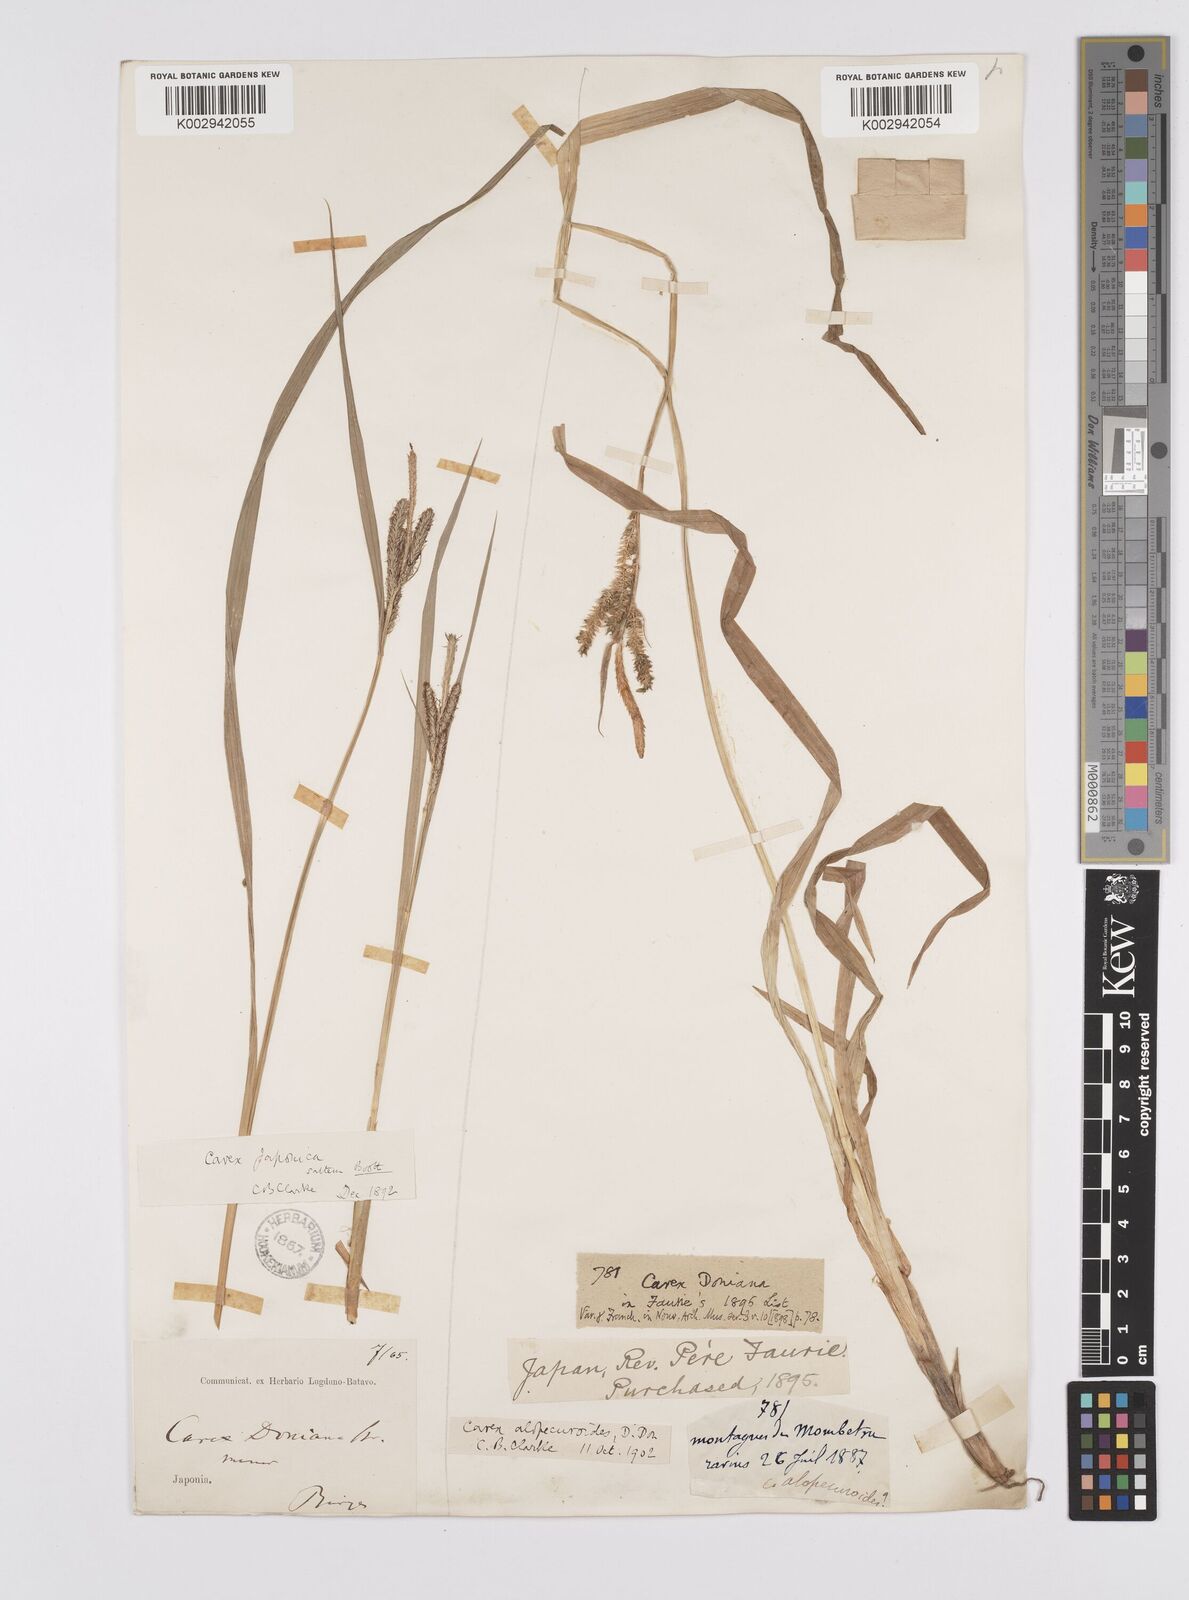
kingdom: Plantae
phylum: Tracheophyta
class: Liliopsida
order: Poales
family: Cyperaceae
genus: Carex
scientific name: Carex japonica
